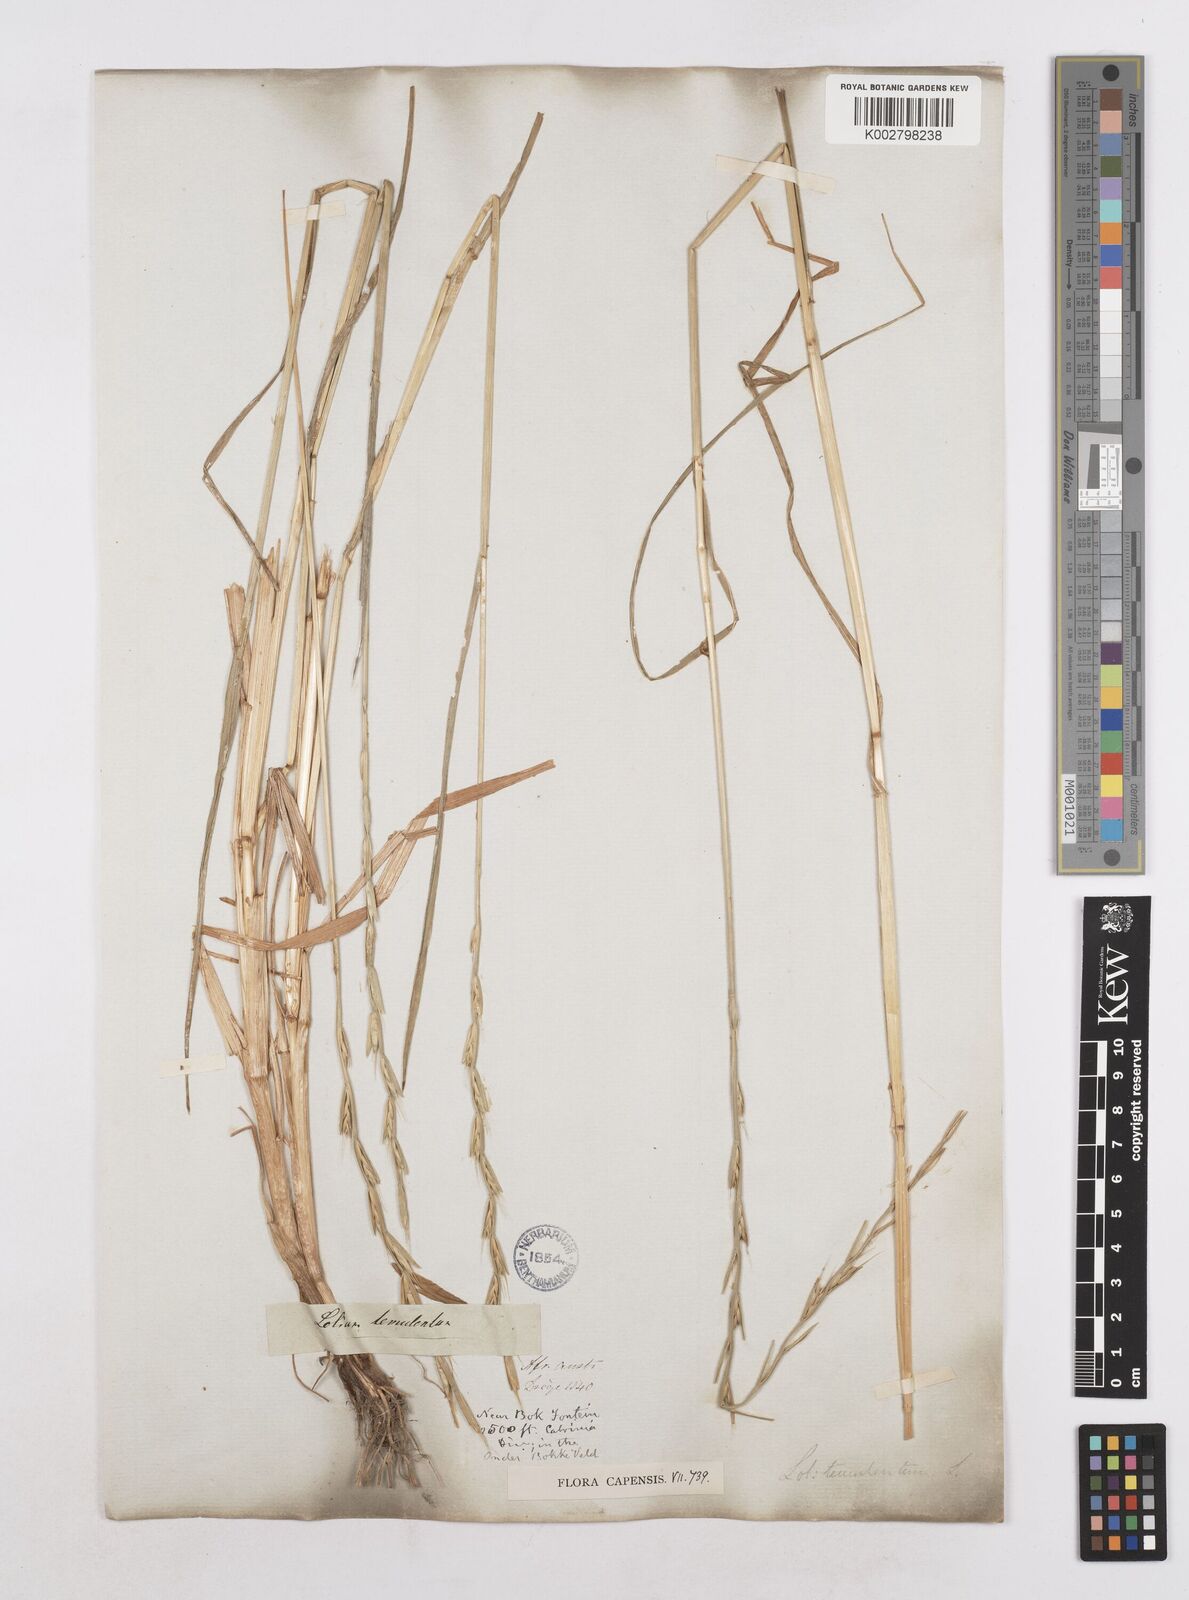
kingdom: Plantae
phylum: Tracheophyta
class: Liliopsida
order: Poales
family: Poaceae
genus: Lolium
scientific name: Lolium temulentum
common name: Darnel
